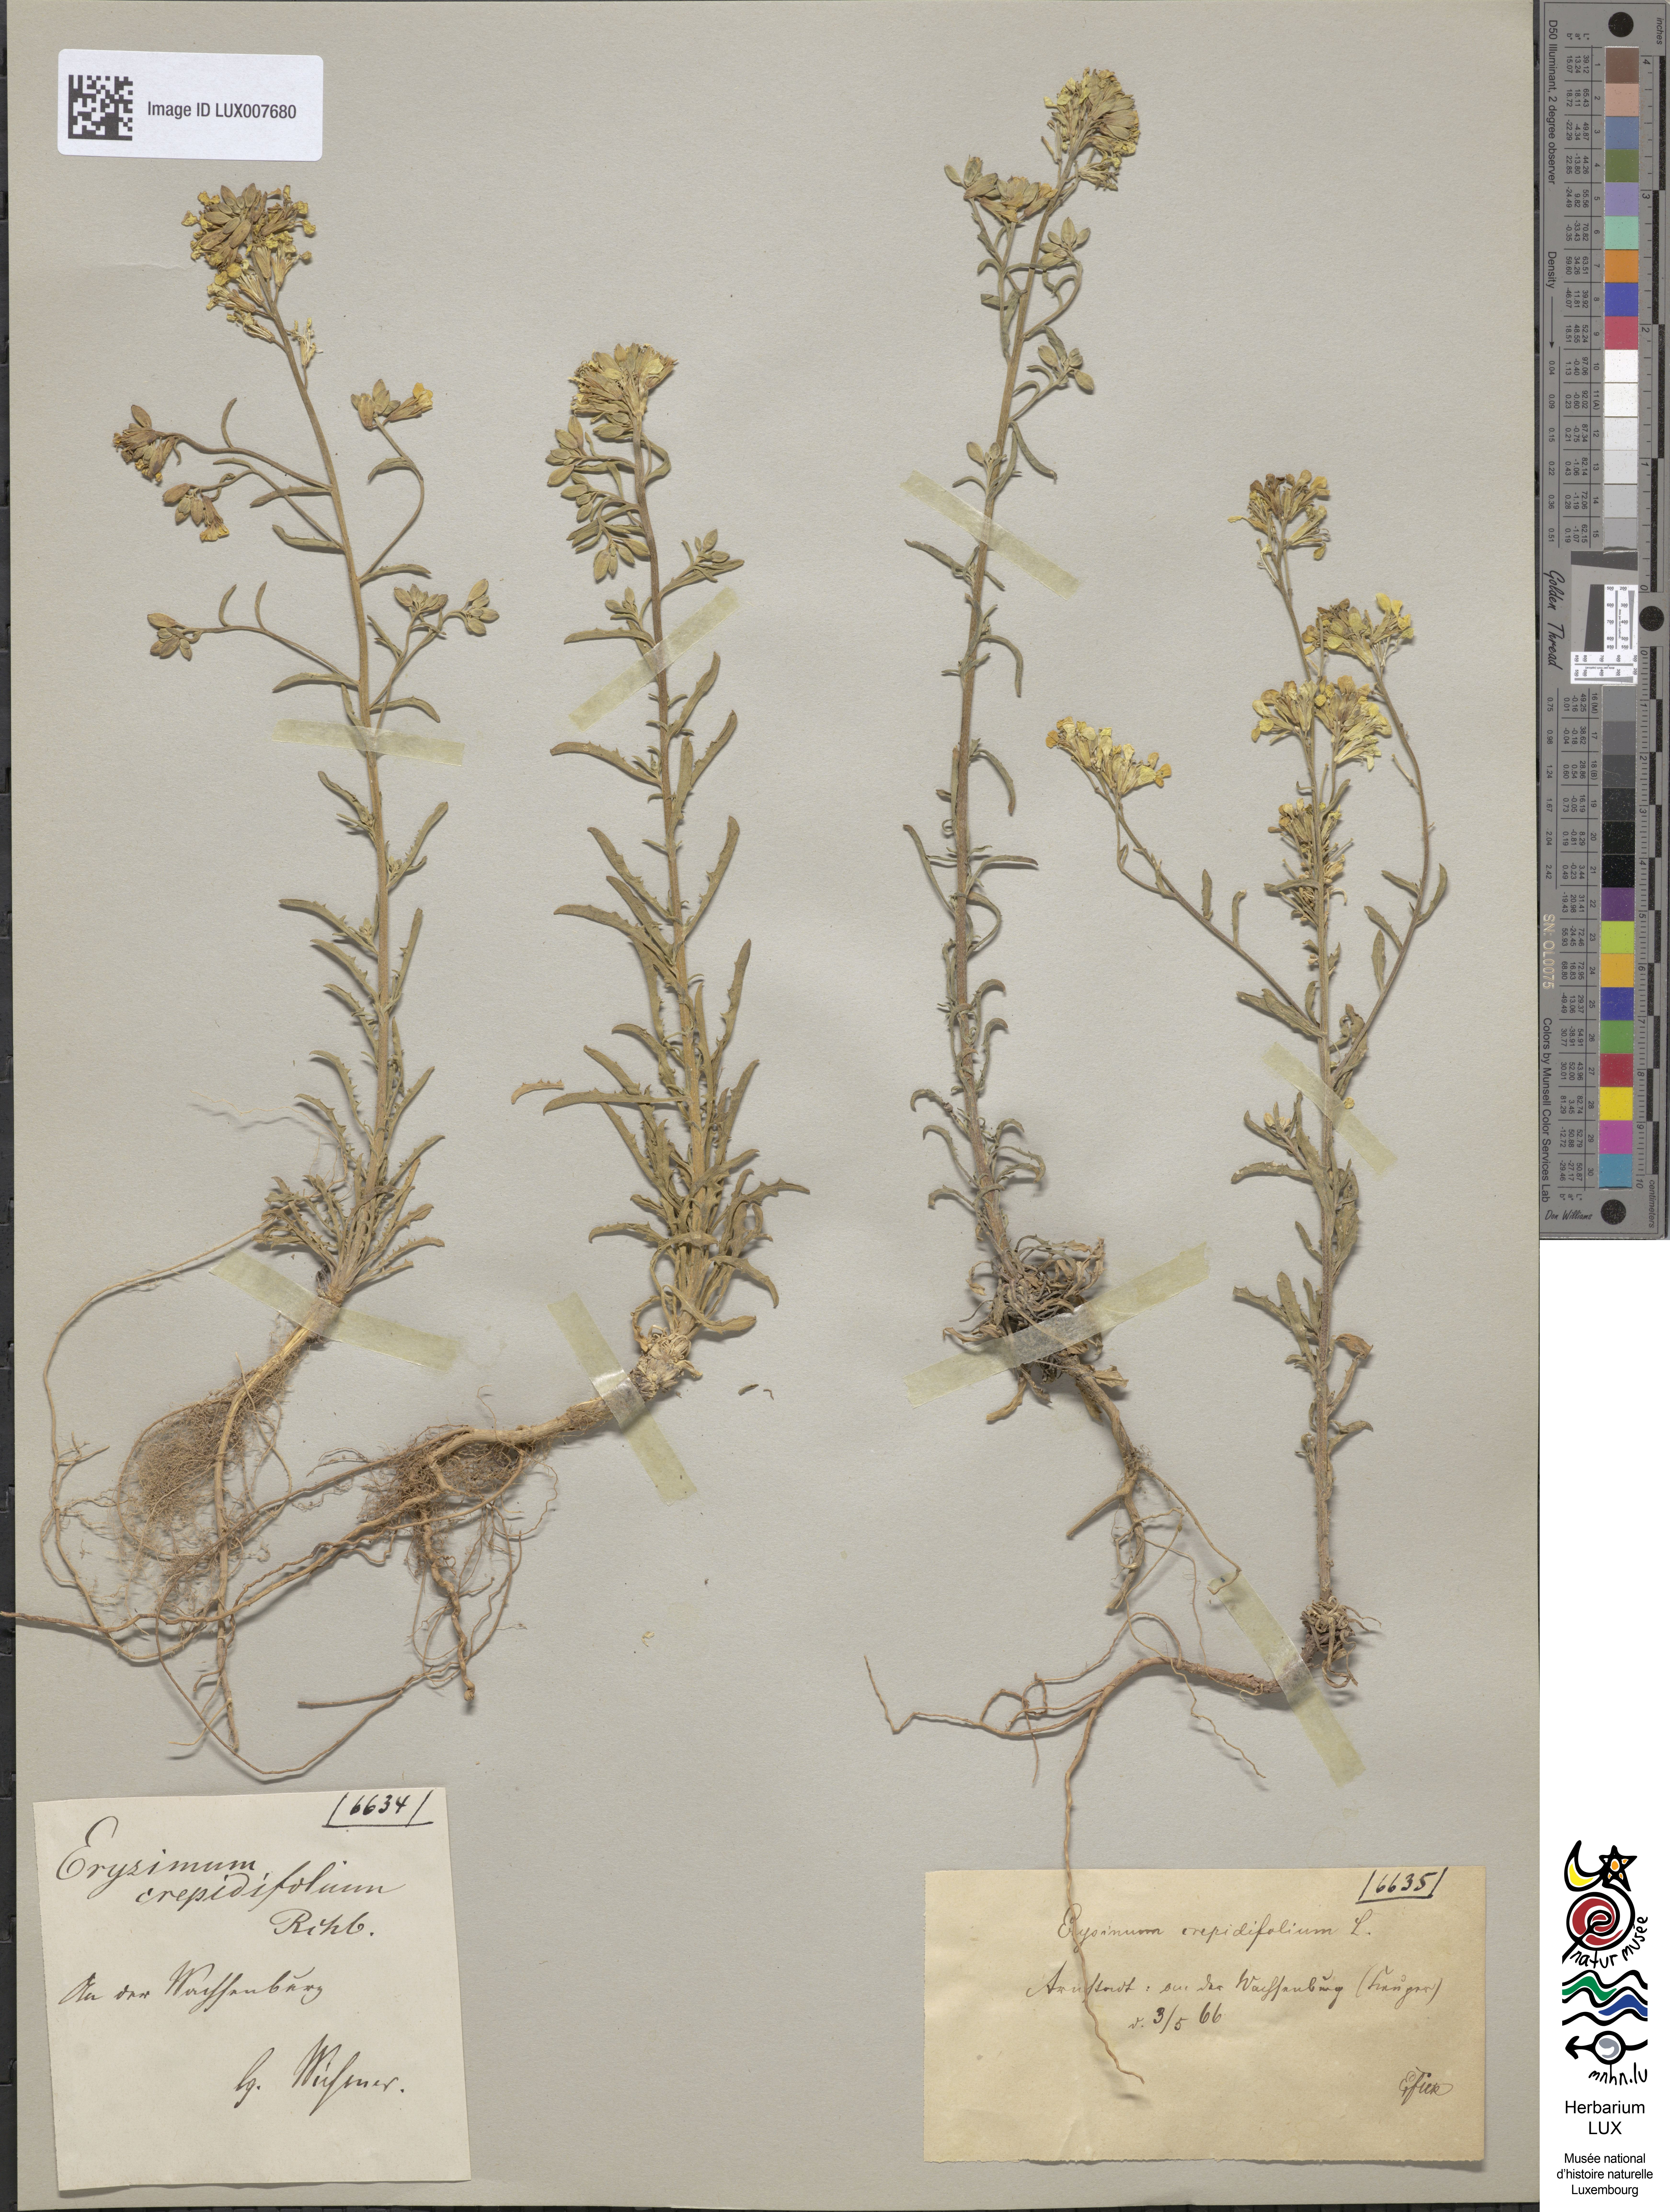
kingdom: Plantae
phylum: Tracheophyta
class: Magnoliopsida
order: Brassicales
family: Brassicaceae
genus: Erysimum
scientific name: Erysimum crepidifolium
